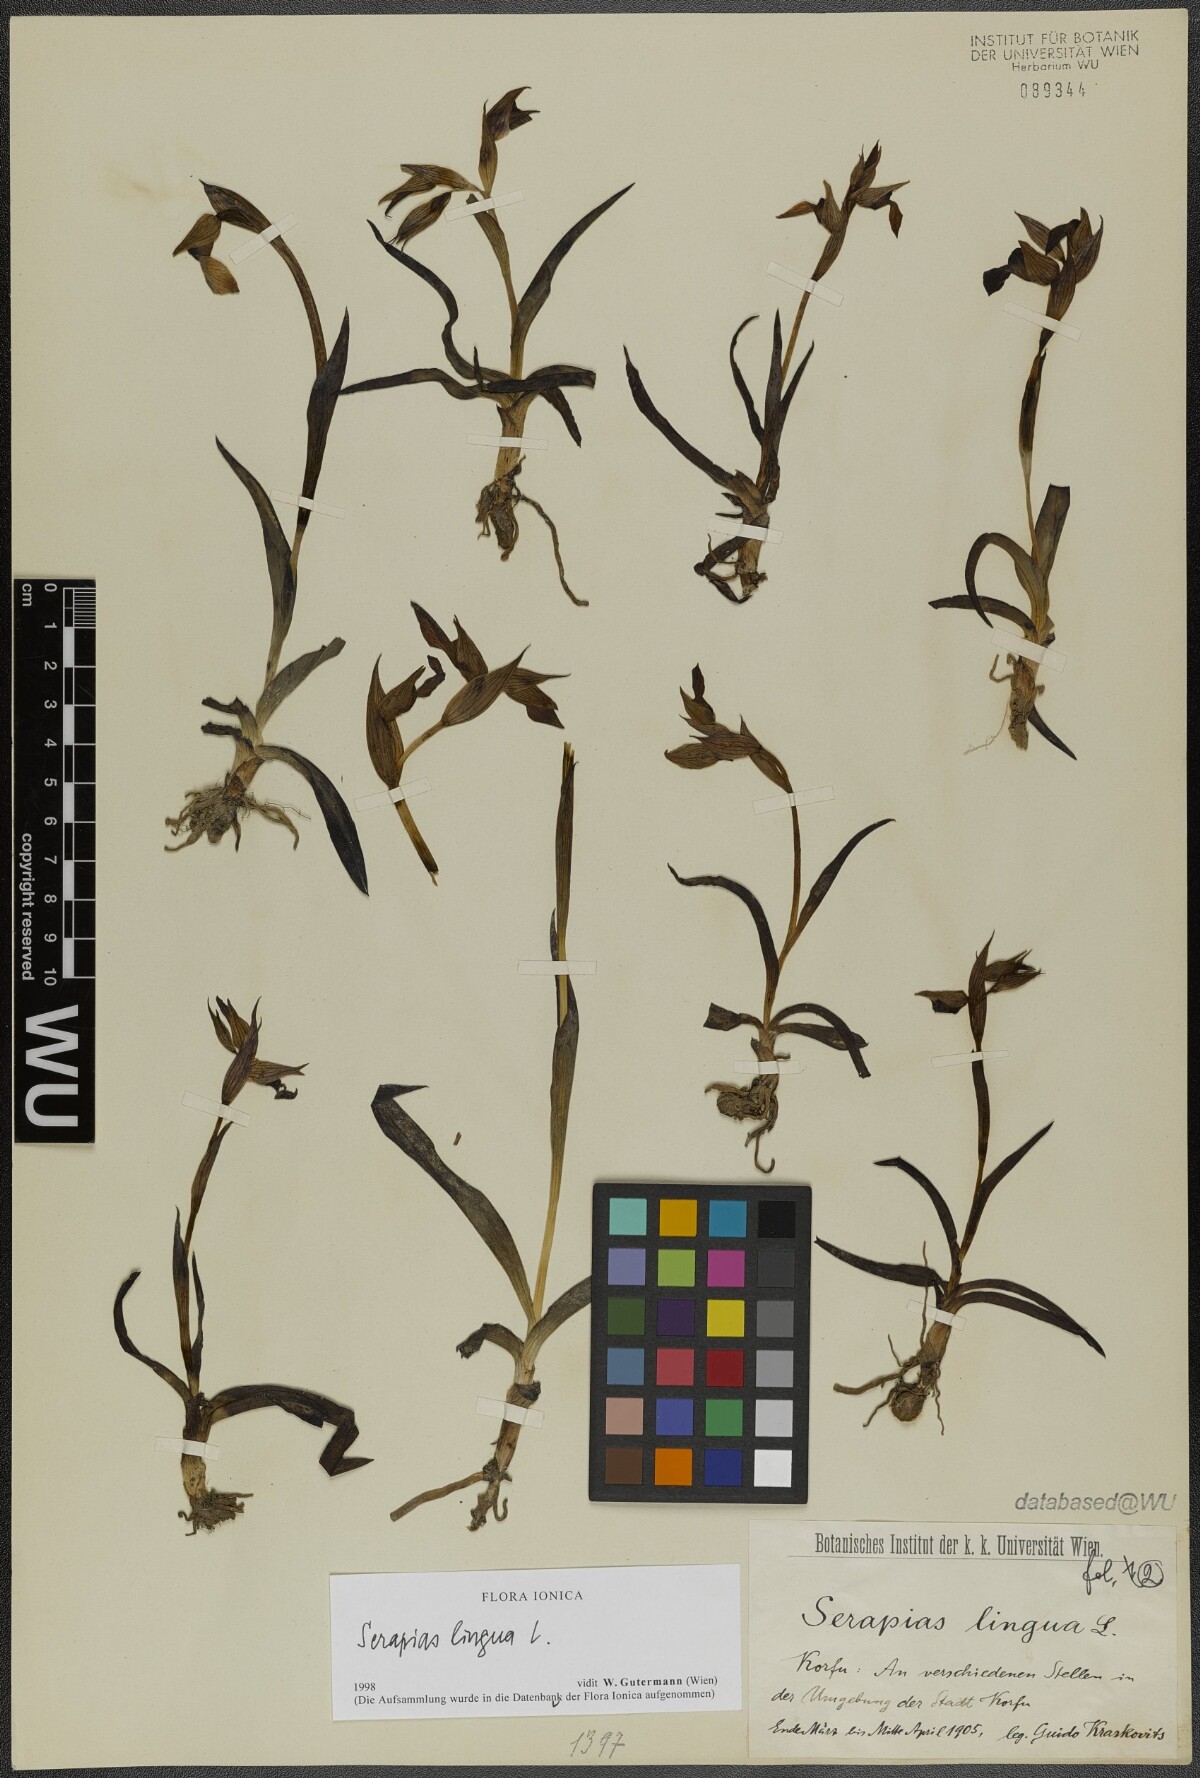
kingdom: Plantae
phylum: Tracheophyta
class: Liliopsida
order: Asparagales
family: Orchidaceae
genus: Serapias
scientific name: Serapias lingua
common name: Tongue-orchid
